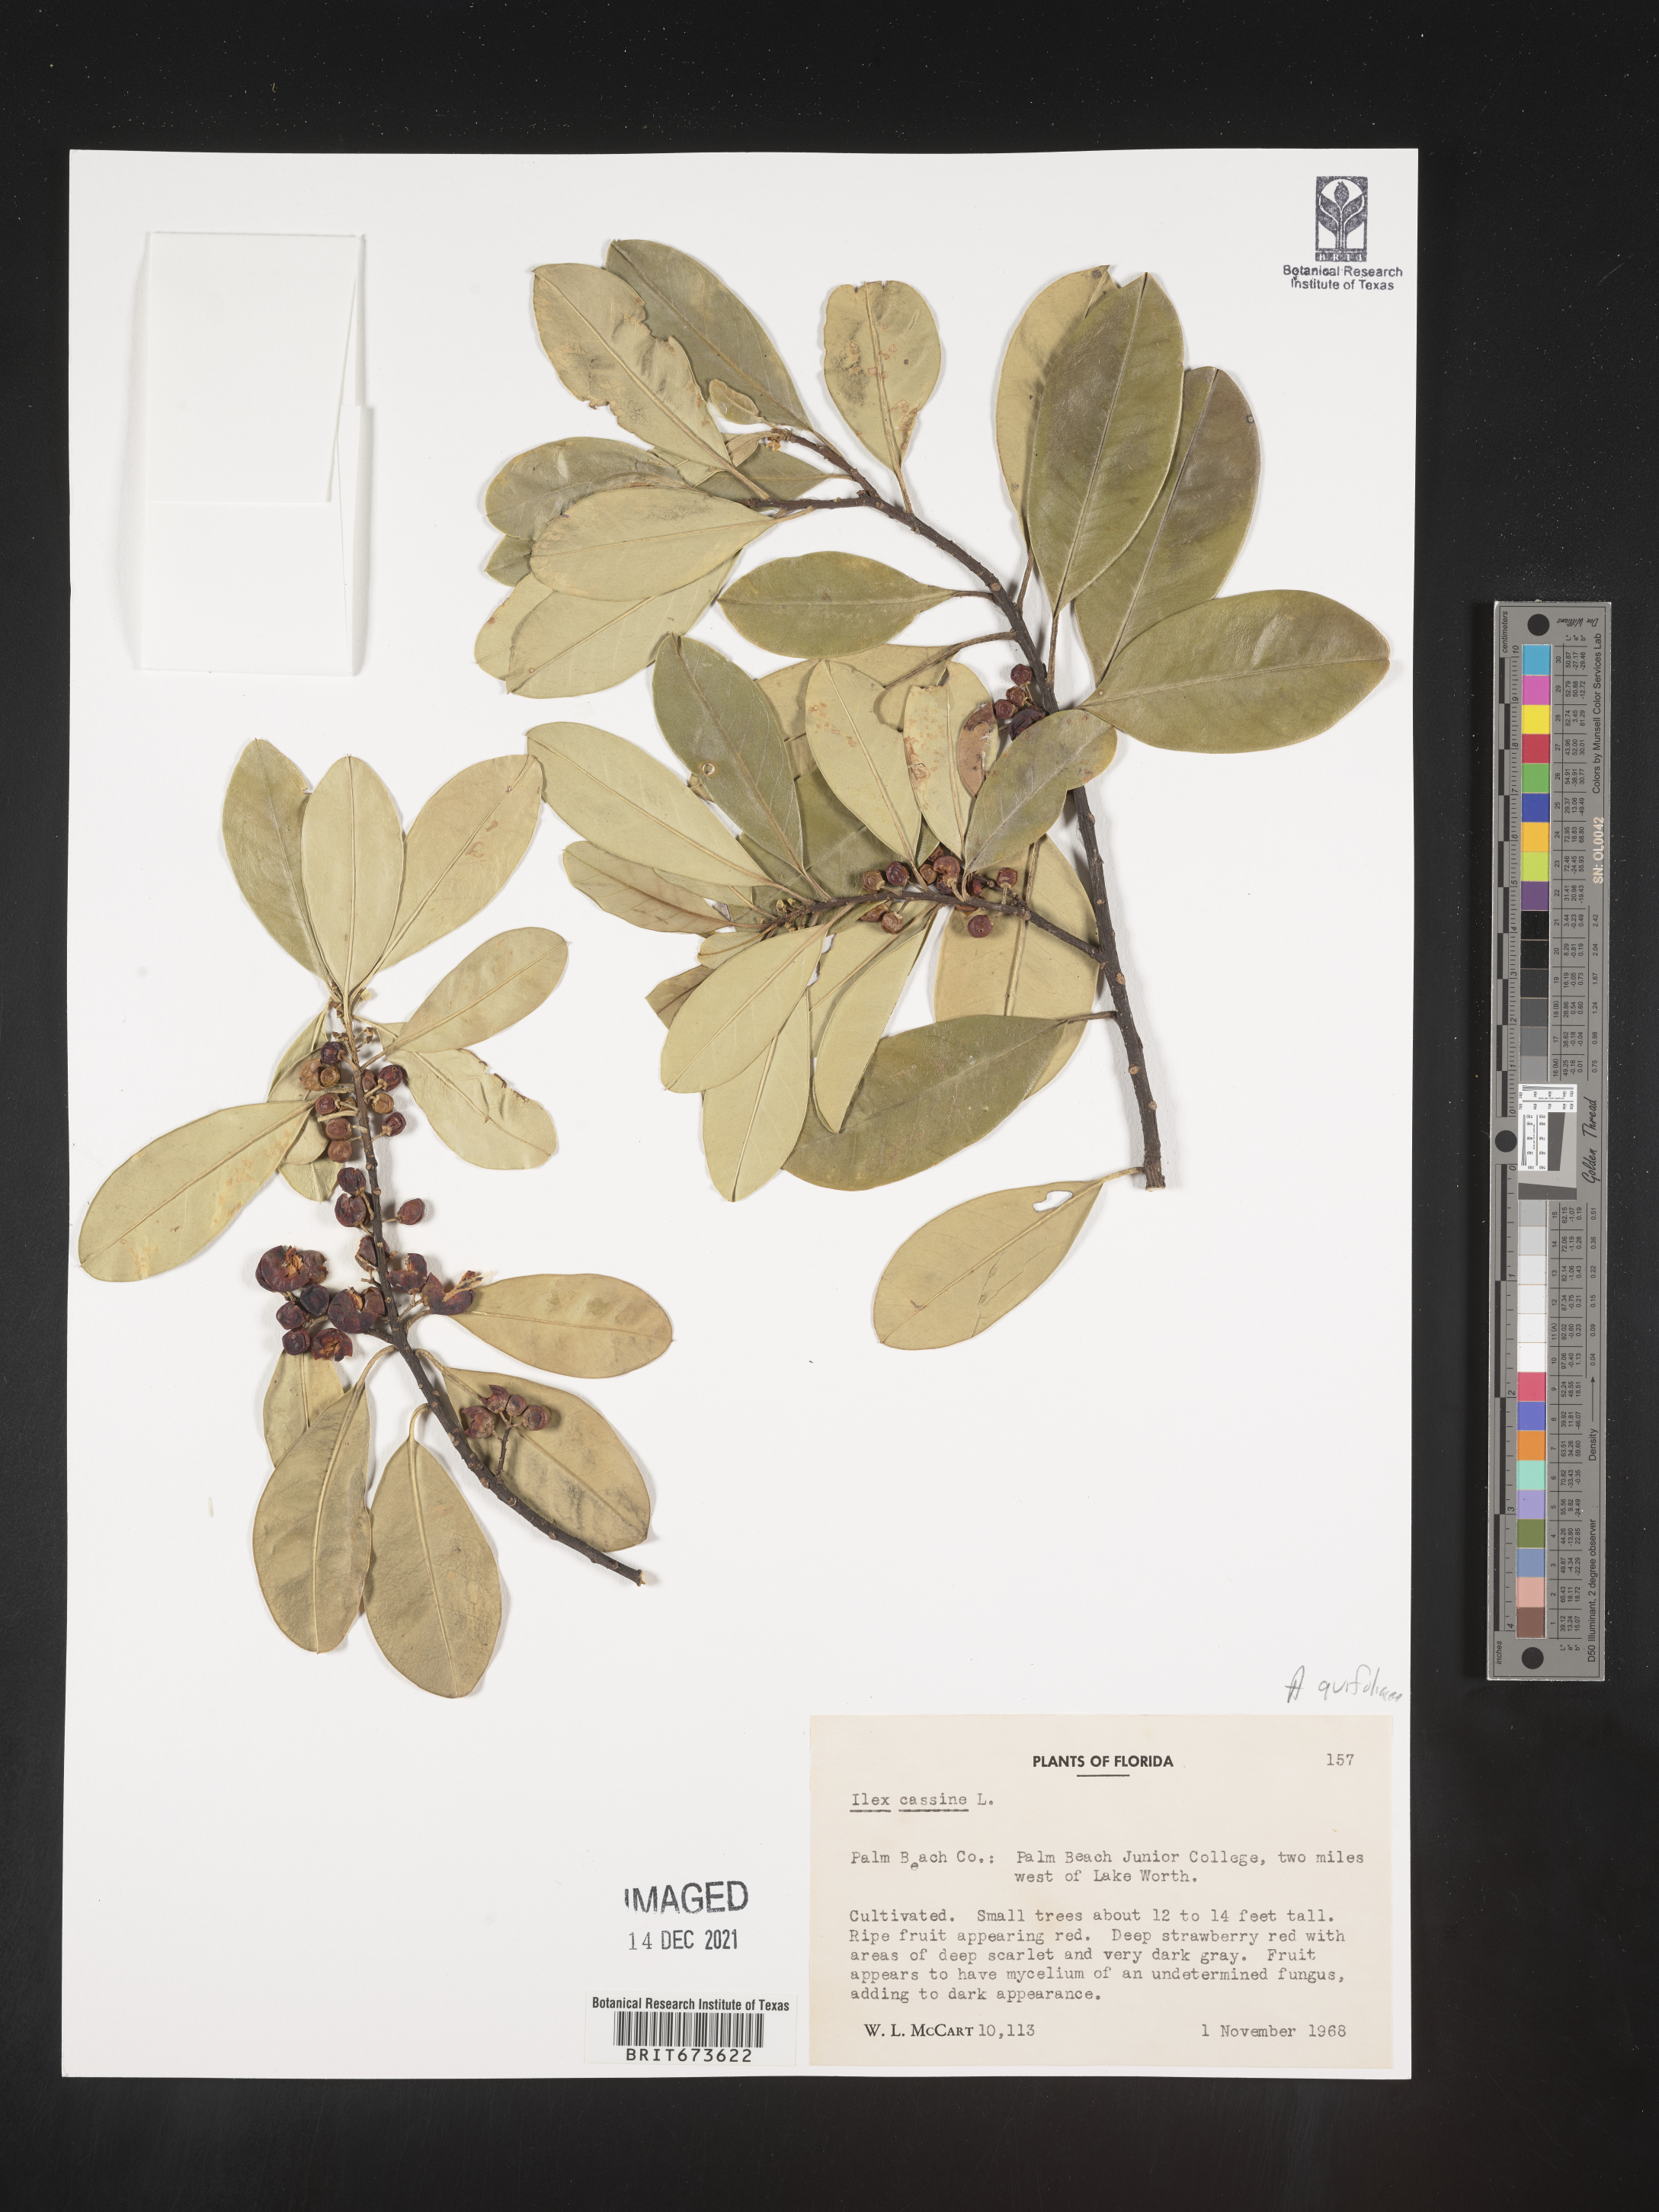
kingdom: Plantae
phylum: Tracheophyta
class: Magnoliopsida
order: Aquifoliales
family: Aquifoliaceae
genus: Ilex
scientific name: Ilex cassine
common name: Dahoon
